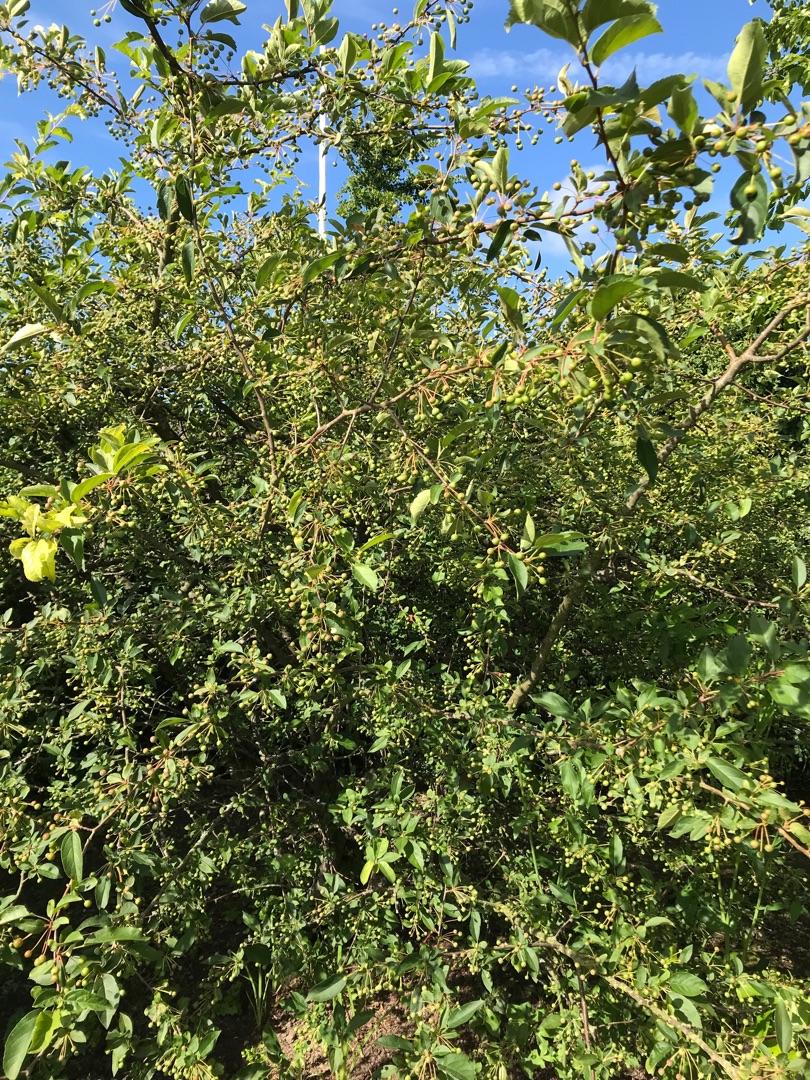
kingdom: Plantae
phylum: Tracheophyta
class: Magnoliopsida
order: Rosales
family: Rosaceae
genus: Malus
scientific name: Malus floribunda
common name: Japansk paradisæble
